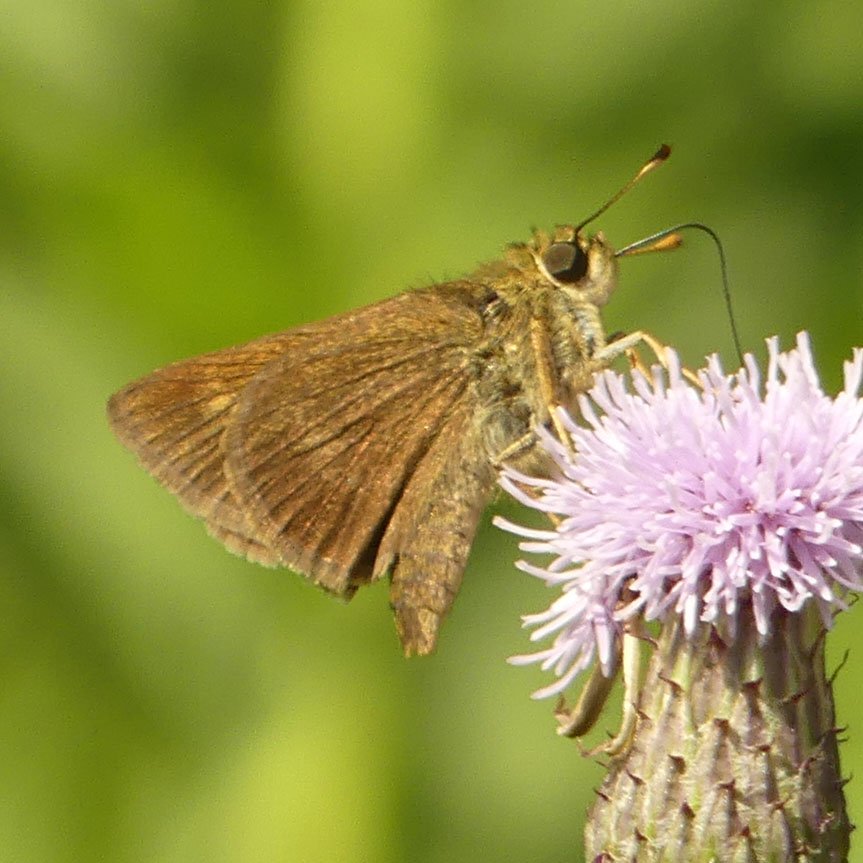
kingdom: Animalia
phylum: Arthropoda
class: Insecta
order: Lepidoptera
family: Hesperiidae
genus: Euphyes
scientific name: Euphyes vestris
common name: Dun Skipper
